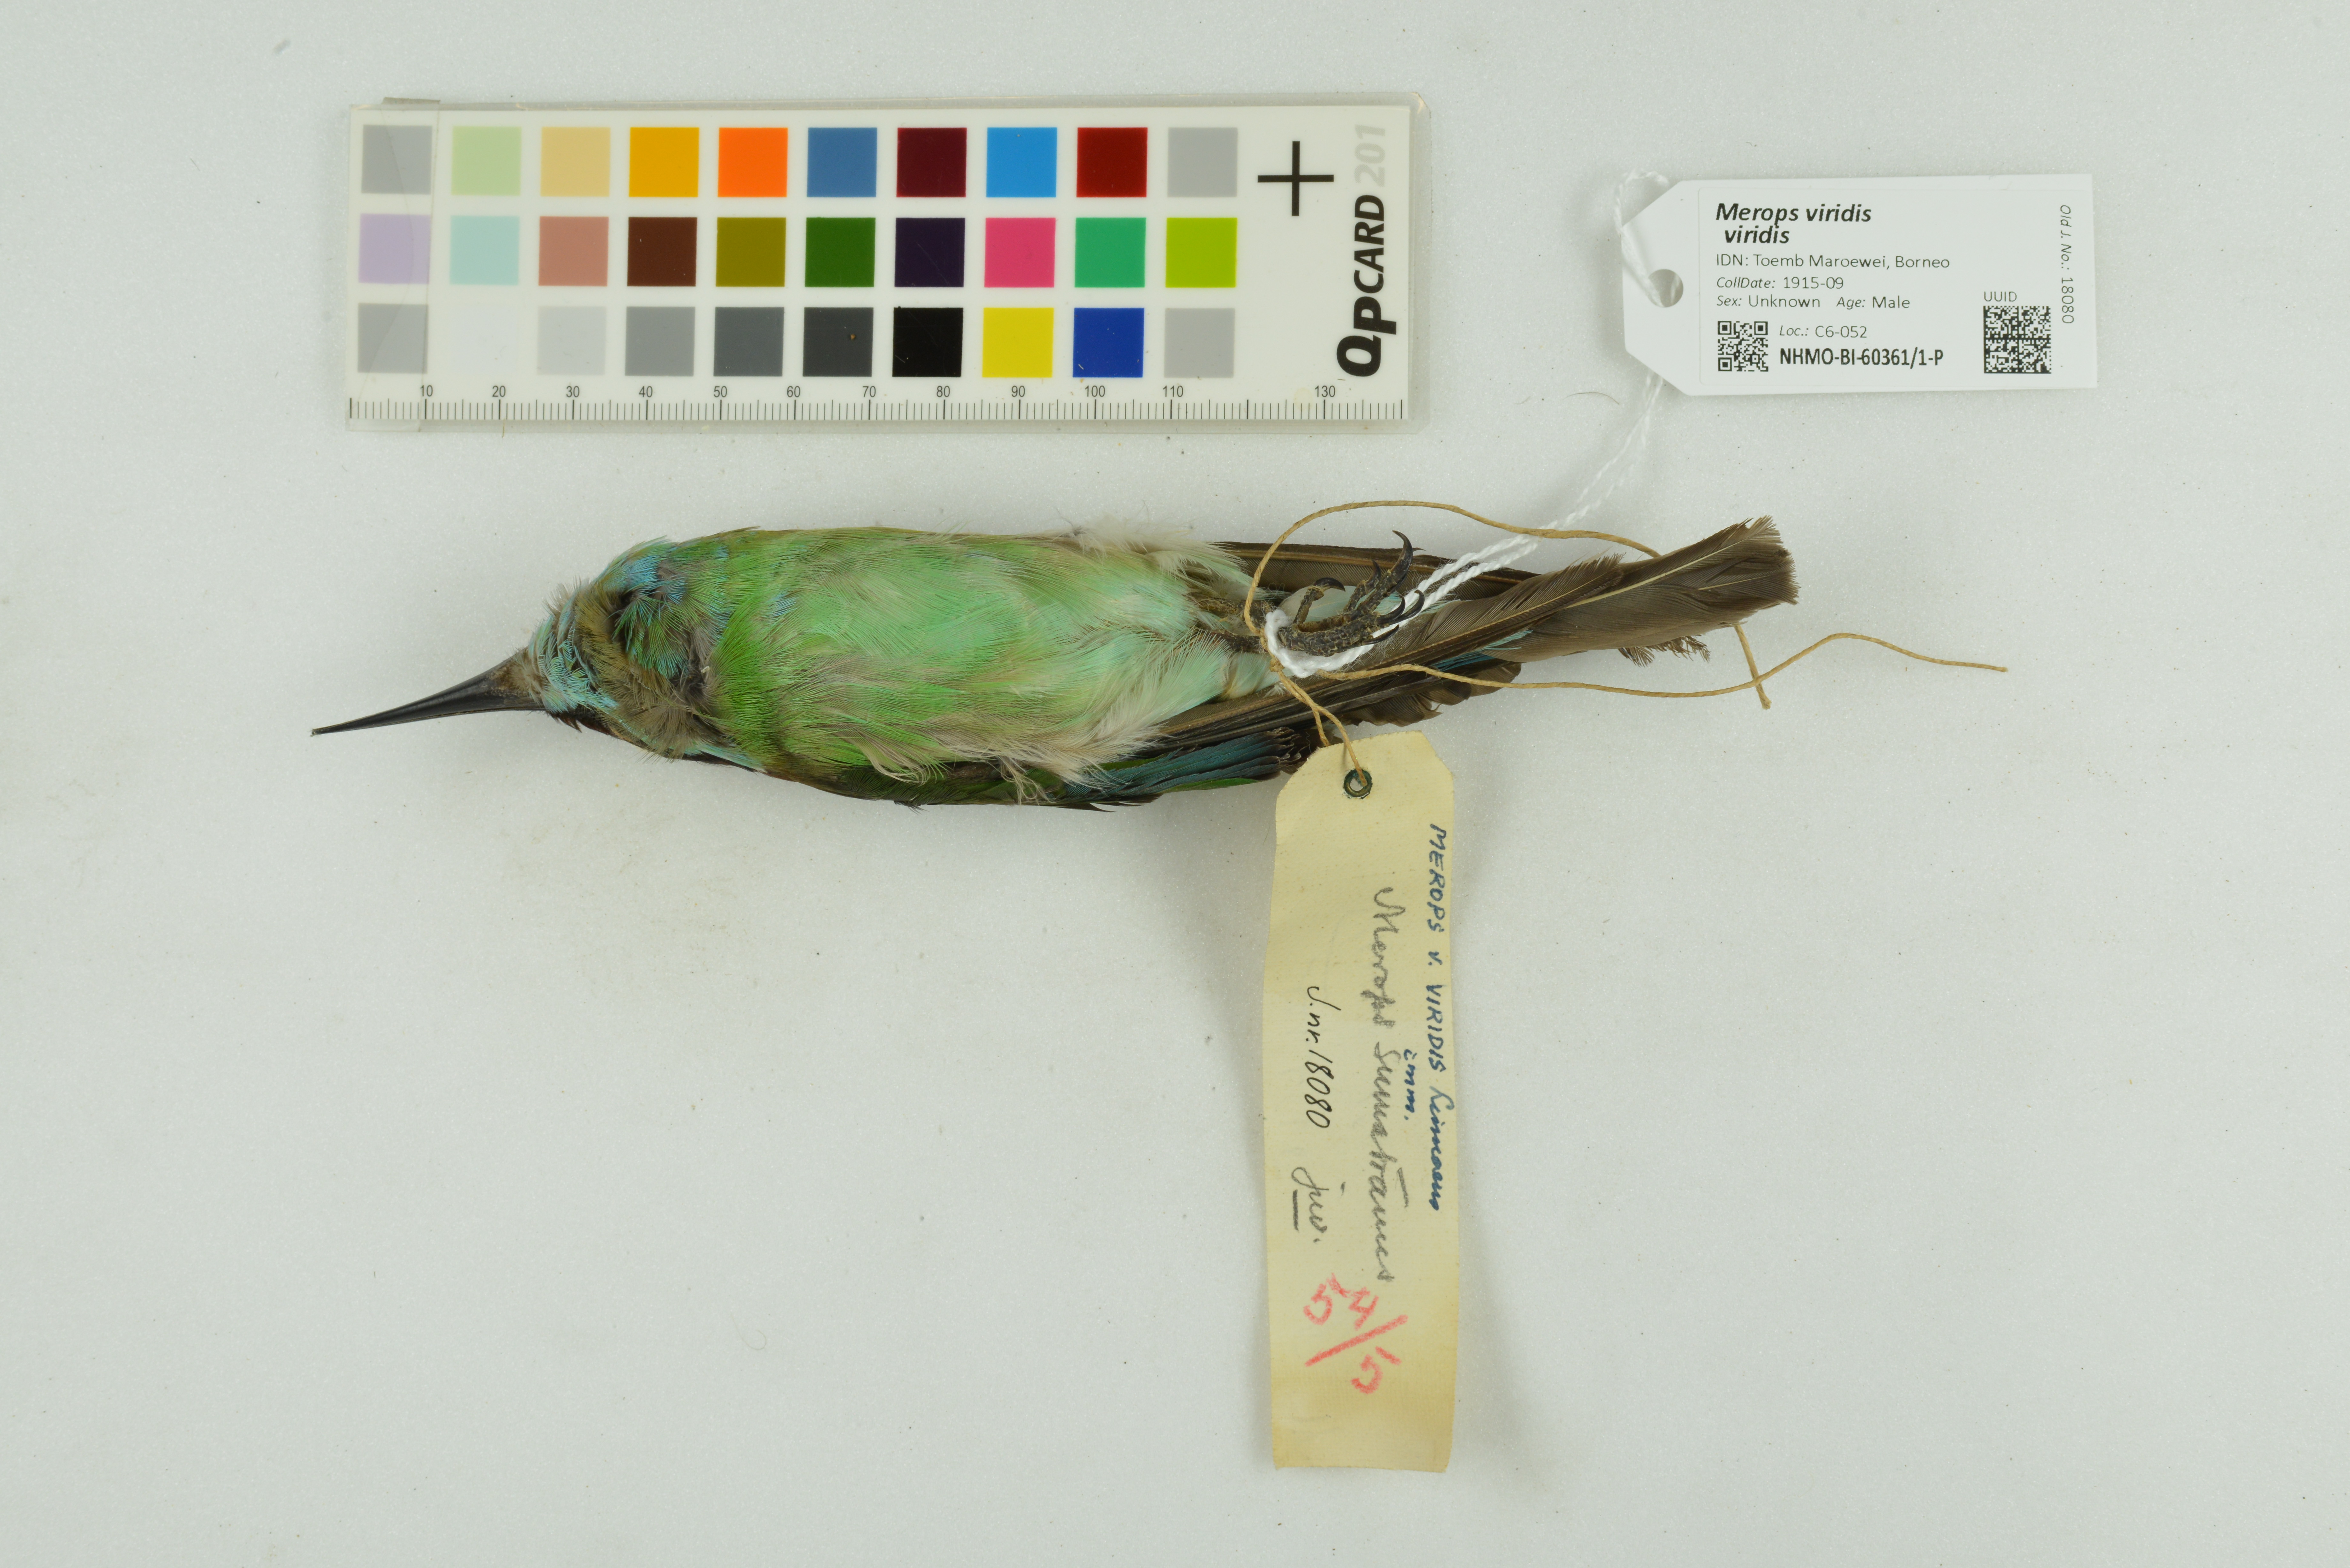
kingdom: Animalia
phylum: Chordata
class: Aves
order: Coraciiformes
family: Meropidae
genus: Merops
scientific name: Merops viridis
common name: Blue-throated bee-eater
